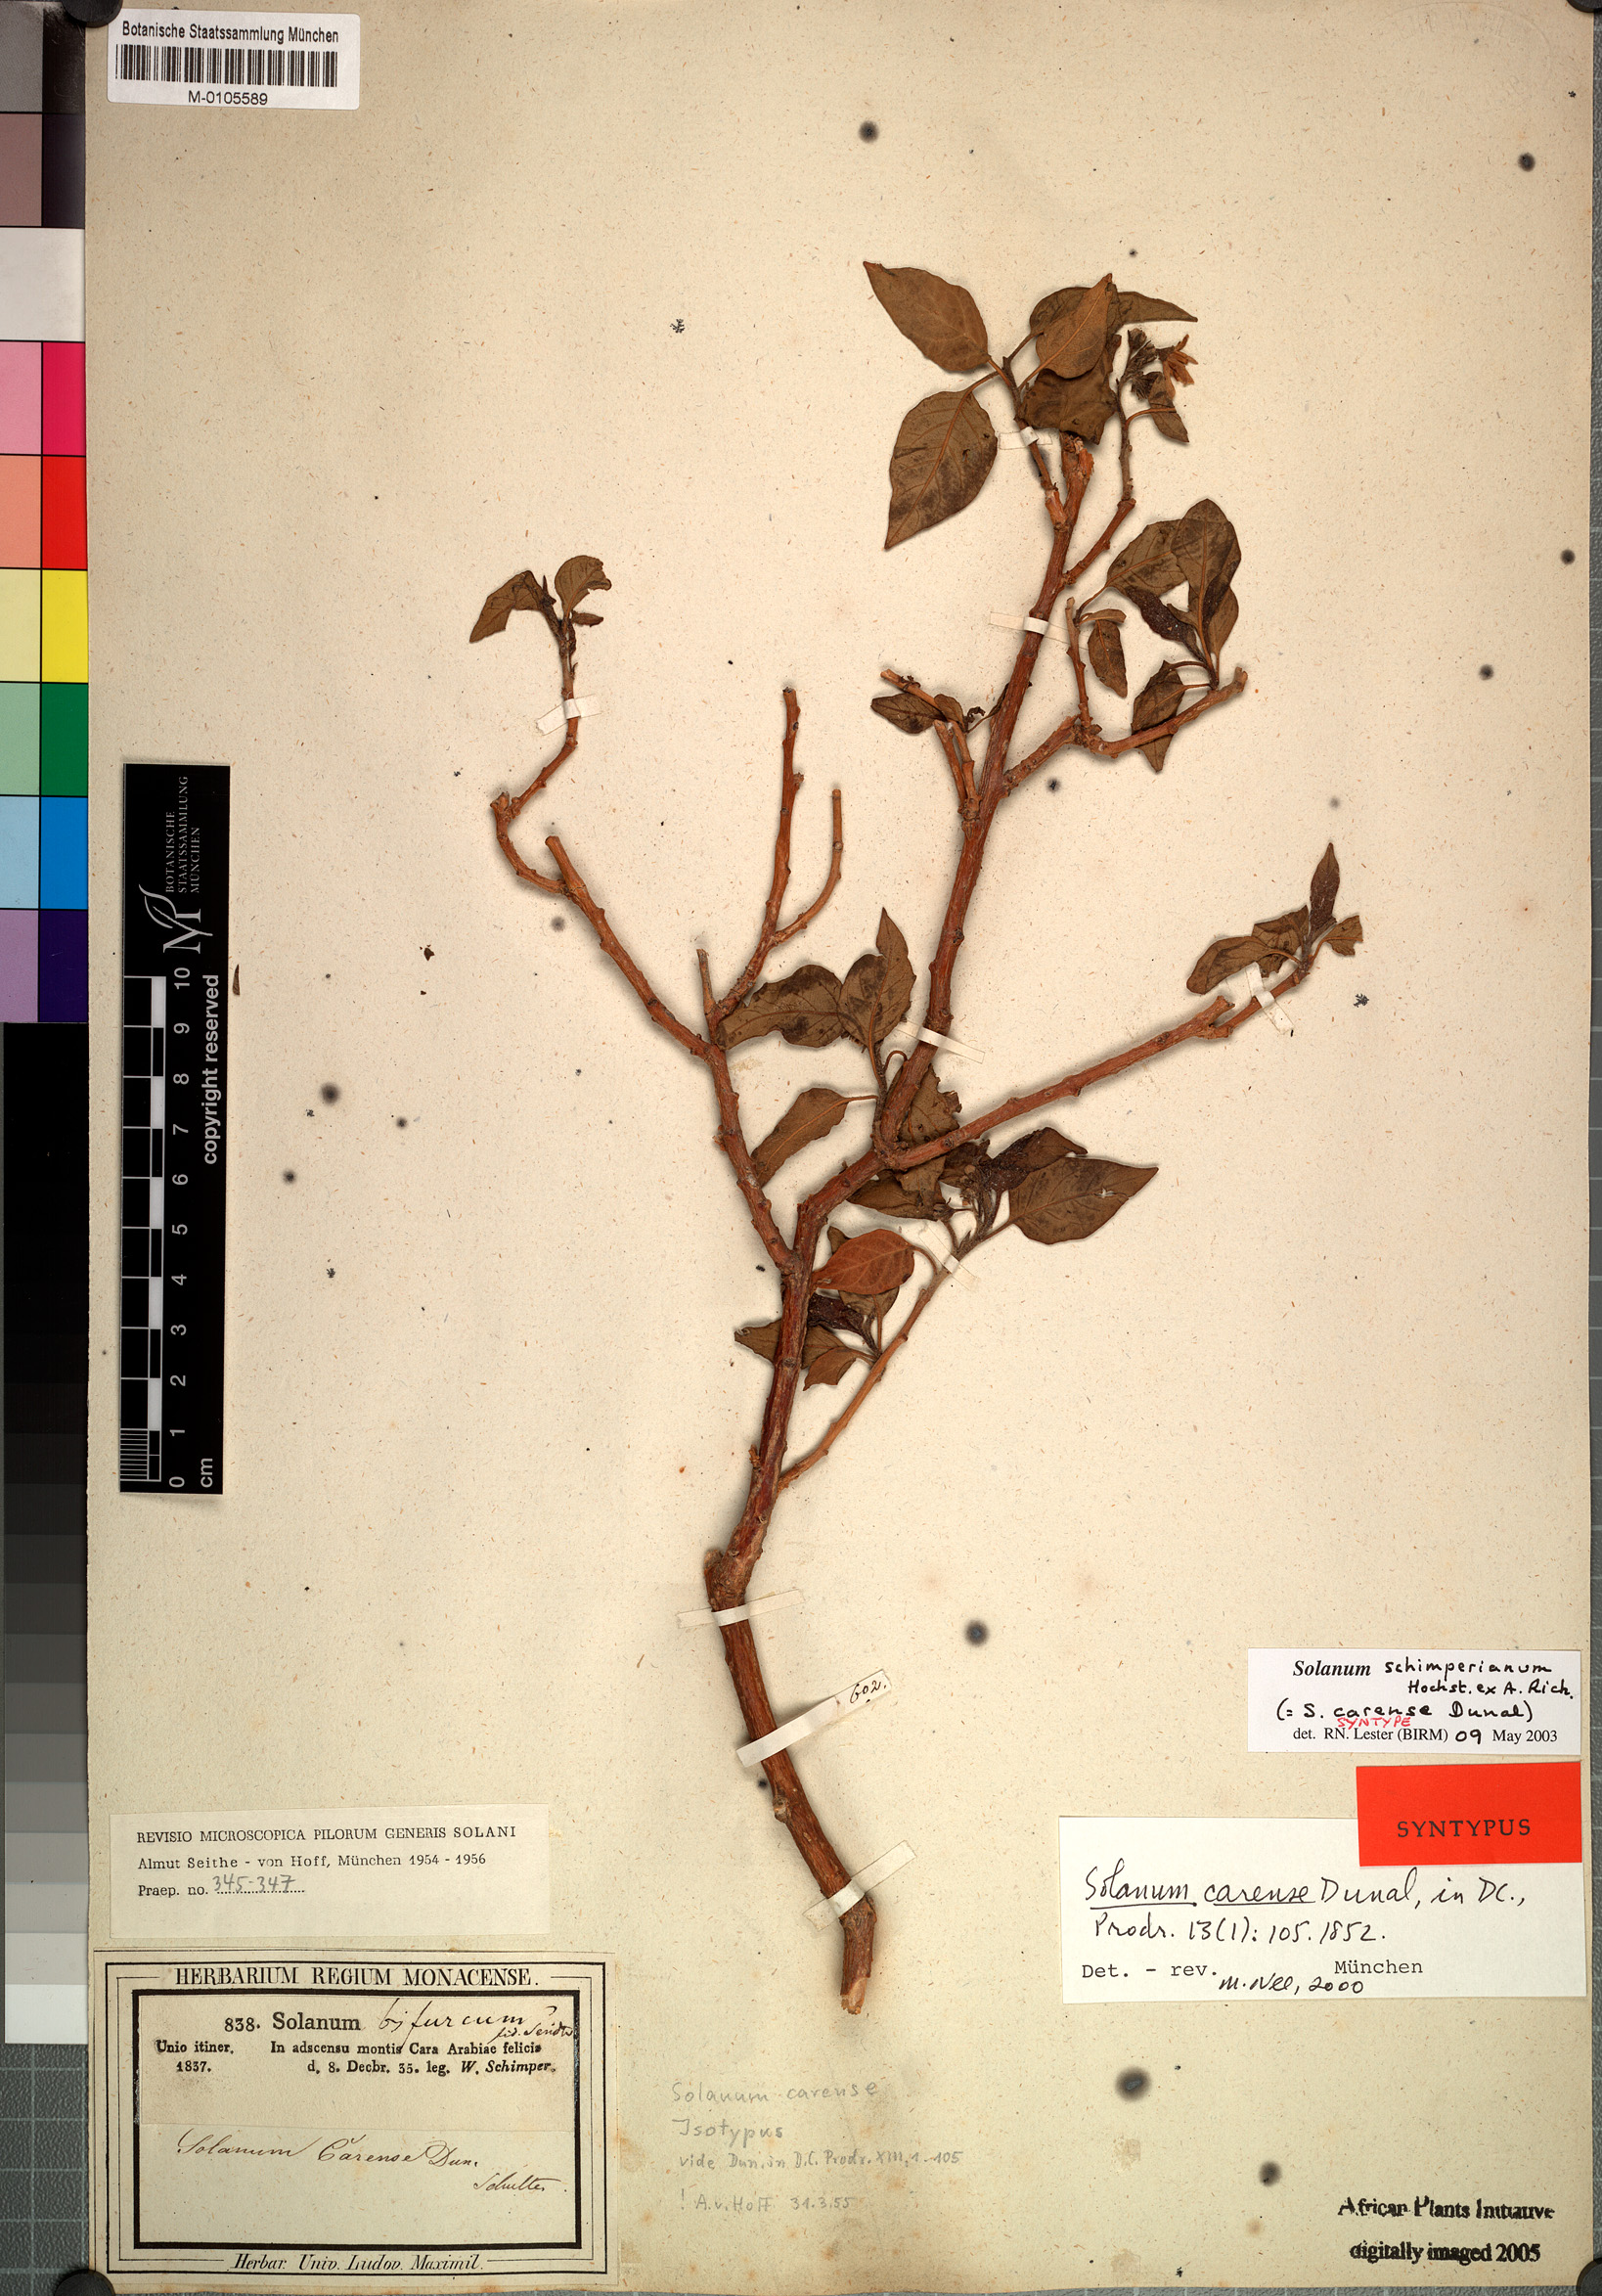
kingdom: Plantae
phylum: Tracheophyta
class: Magnoliopsida
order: Solanales
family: Solanaceae
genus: Solanum
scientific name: Solanum schimperianum
